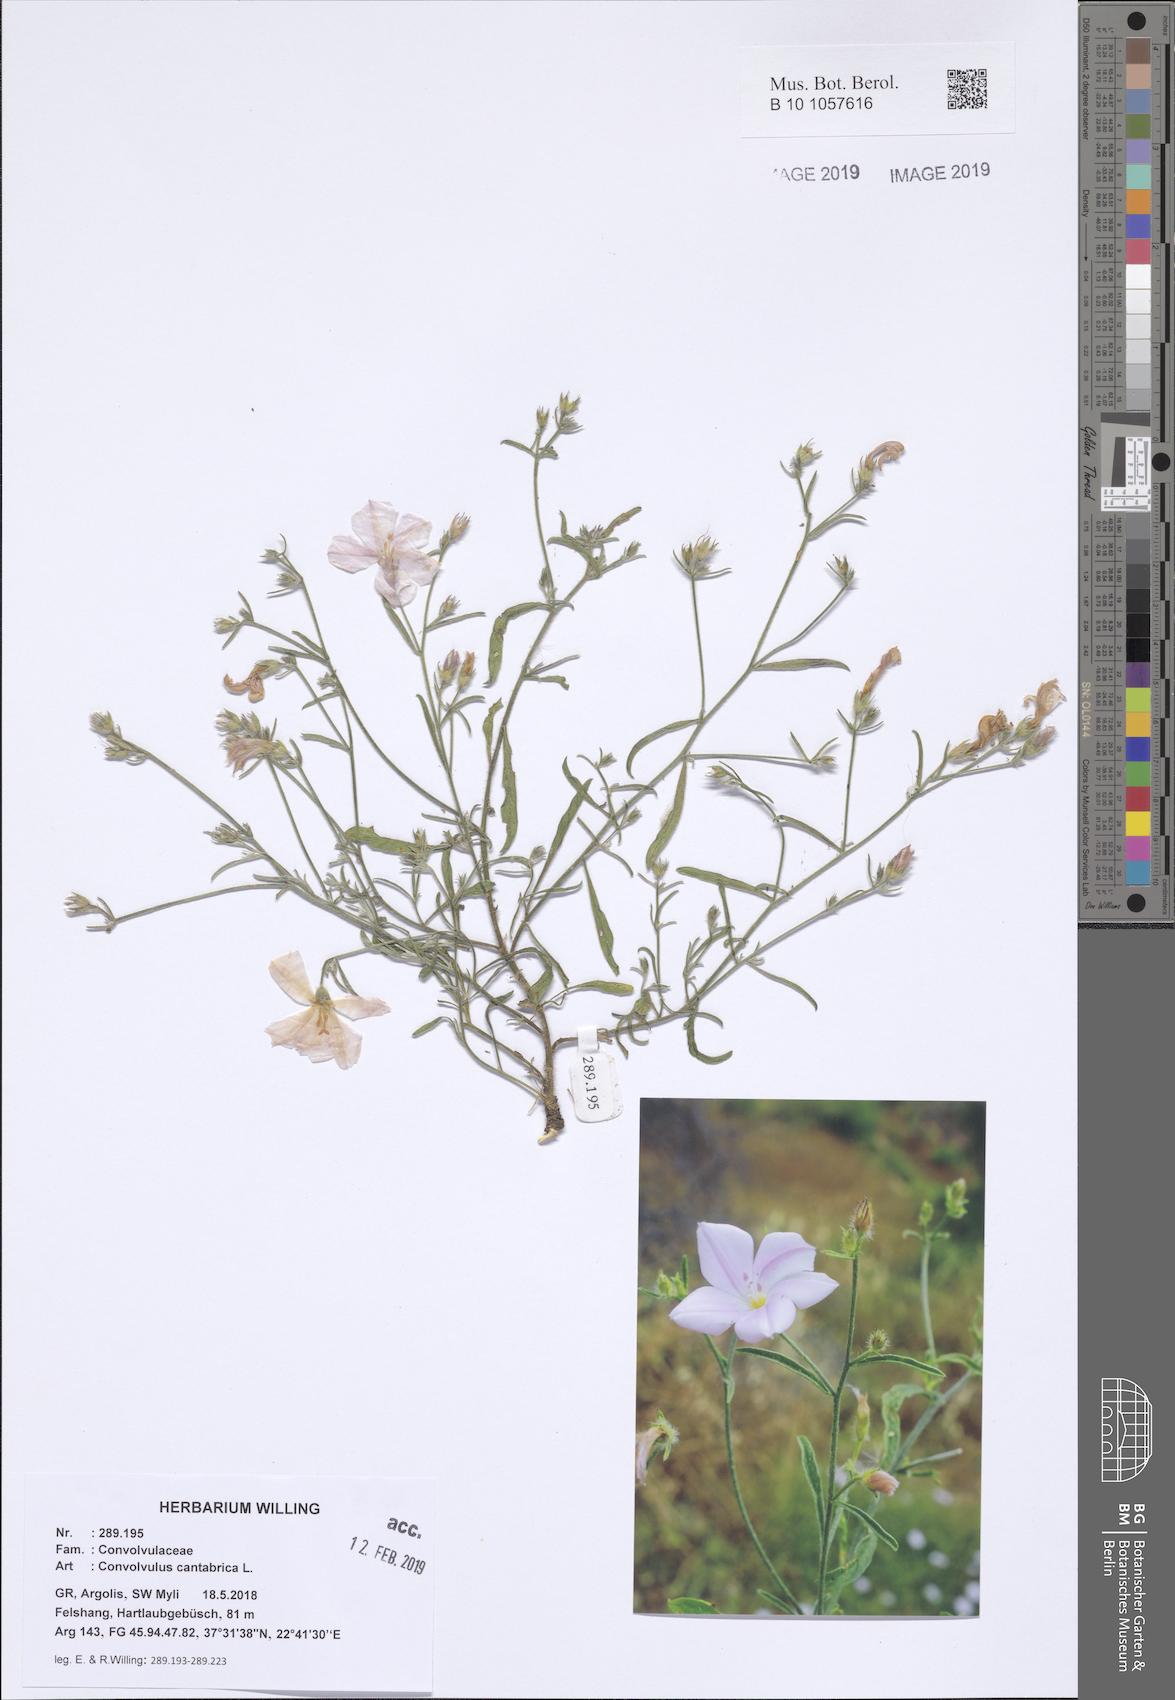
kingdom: Plantae
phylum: Tracheophyta
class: Magnoliopsida
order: Solanales
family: Convolvulaceae
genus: Convolvulus
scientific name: Convolvulus cantabrica
